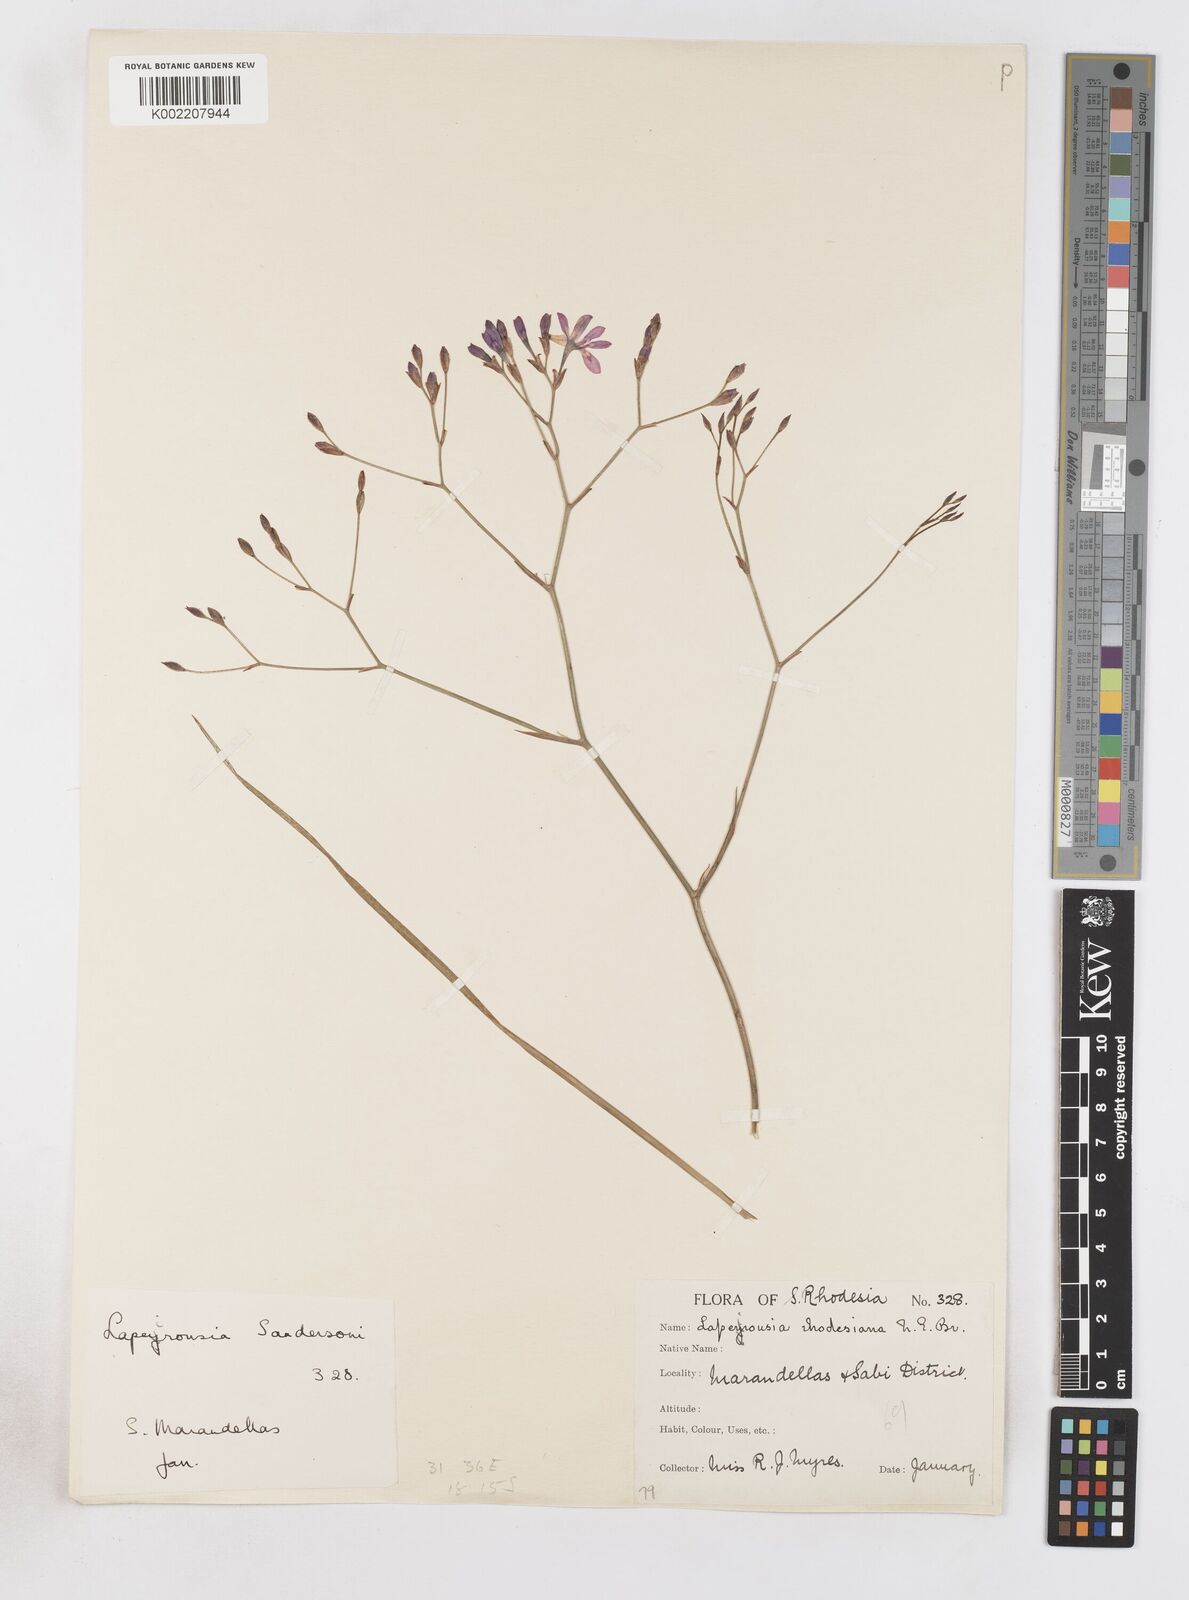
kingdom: Plantae
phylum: Tracheophyta
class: Liliopsida
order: Asparagales
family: Iridaceae
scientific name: Iridaceae
